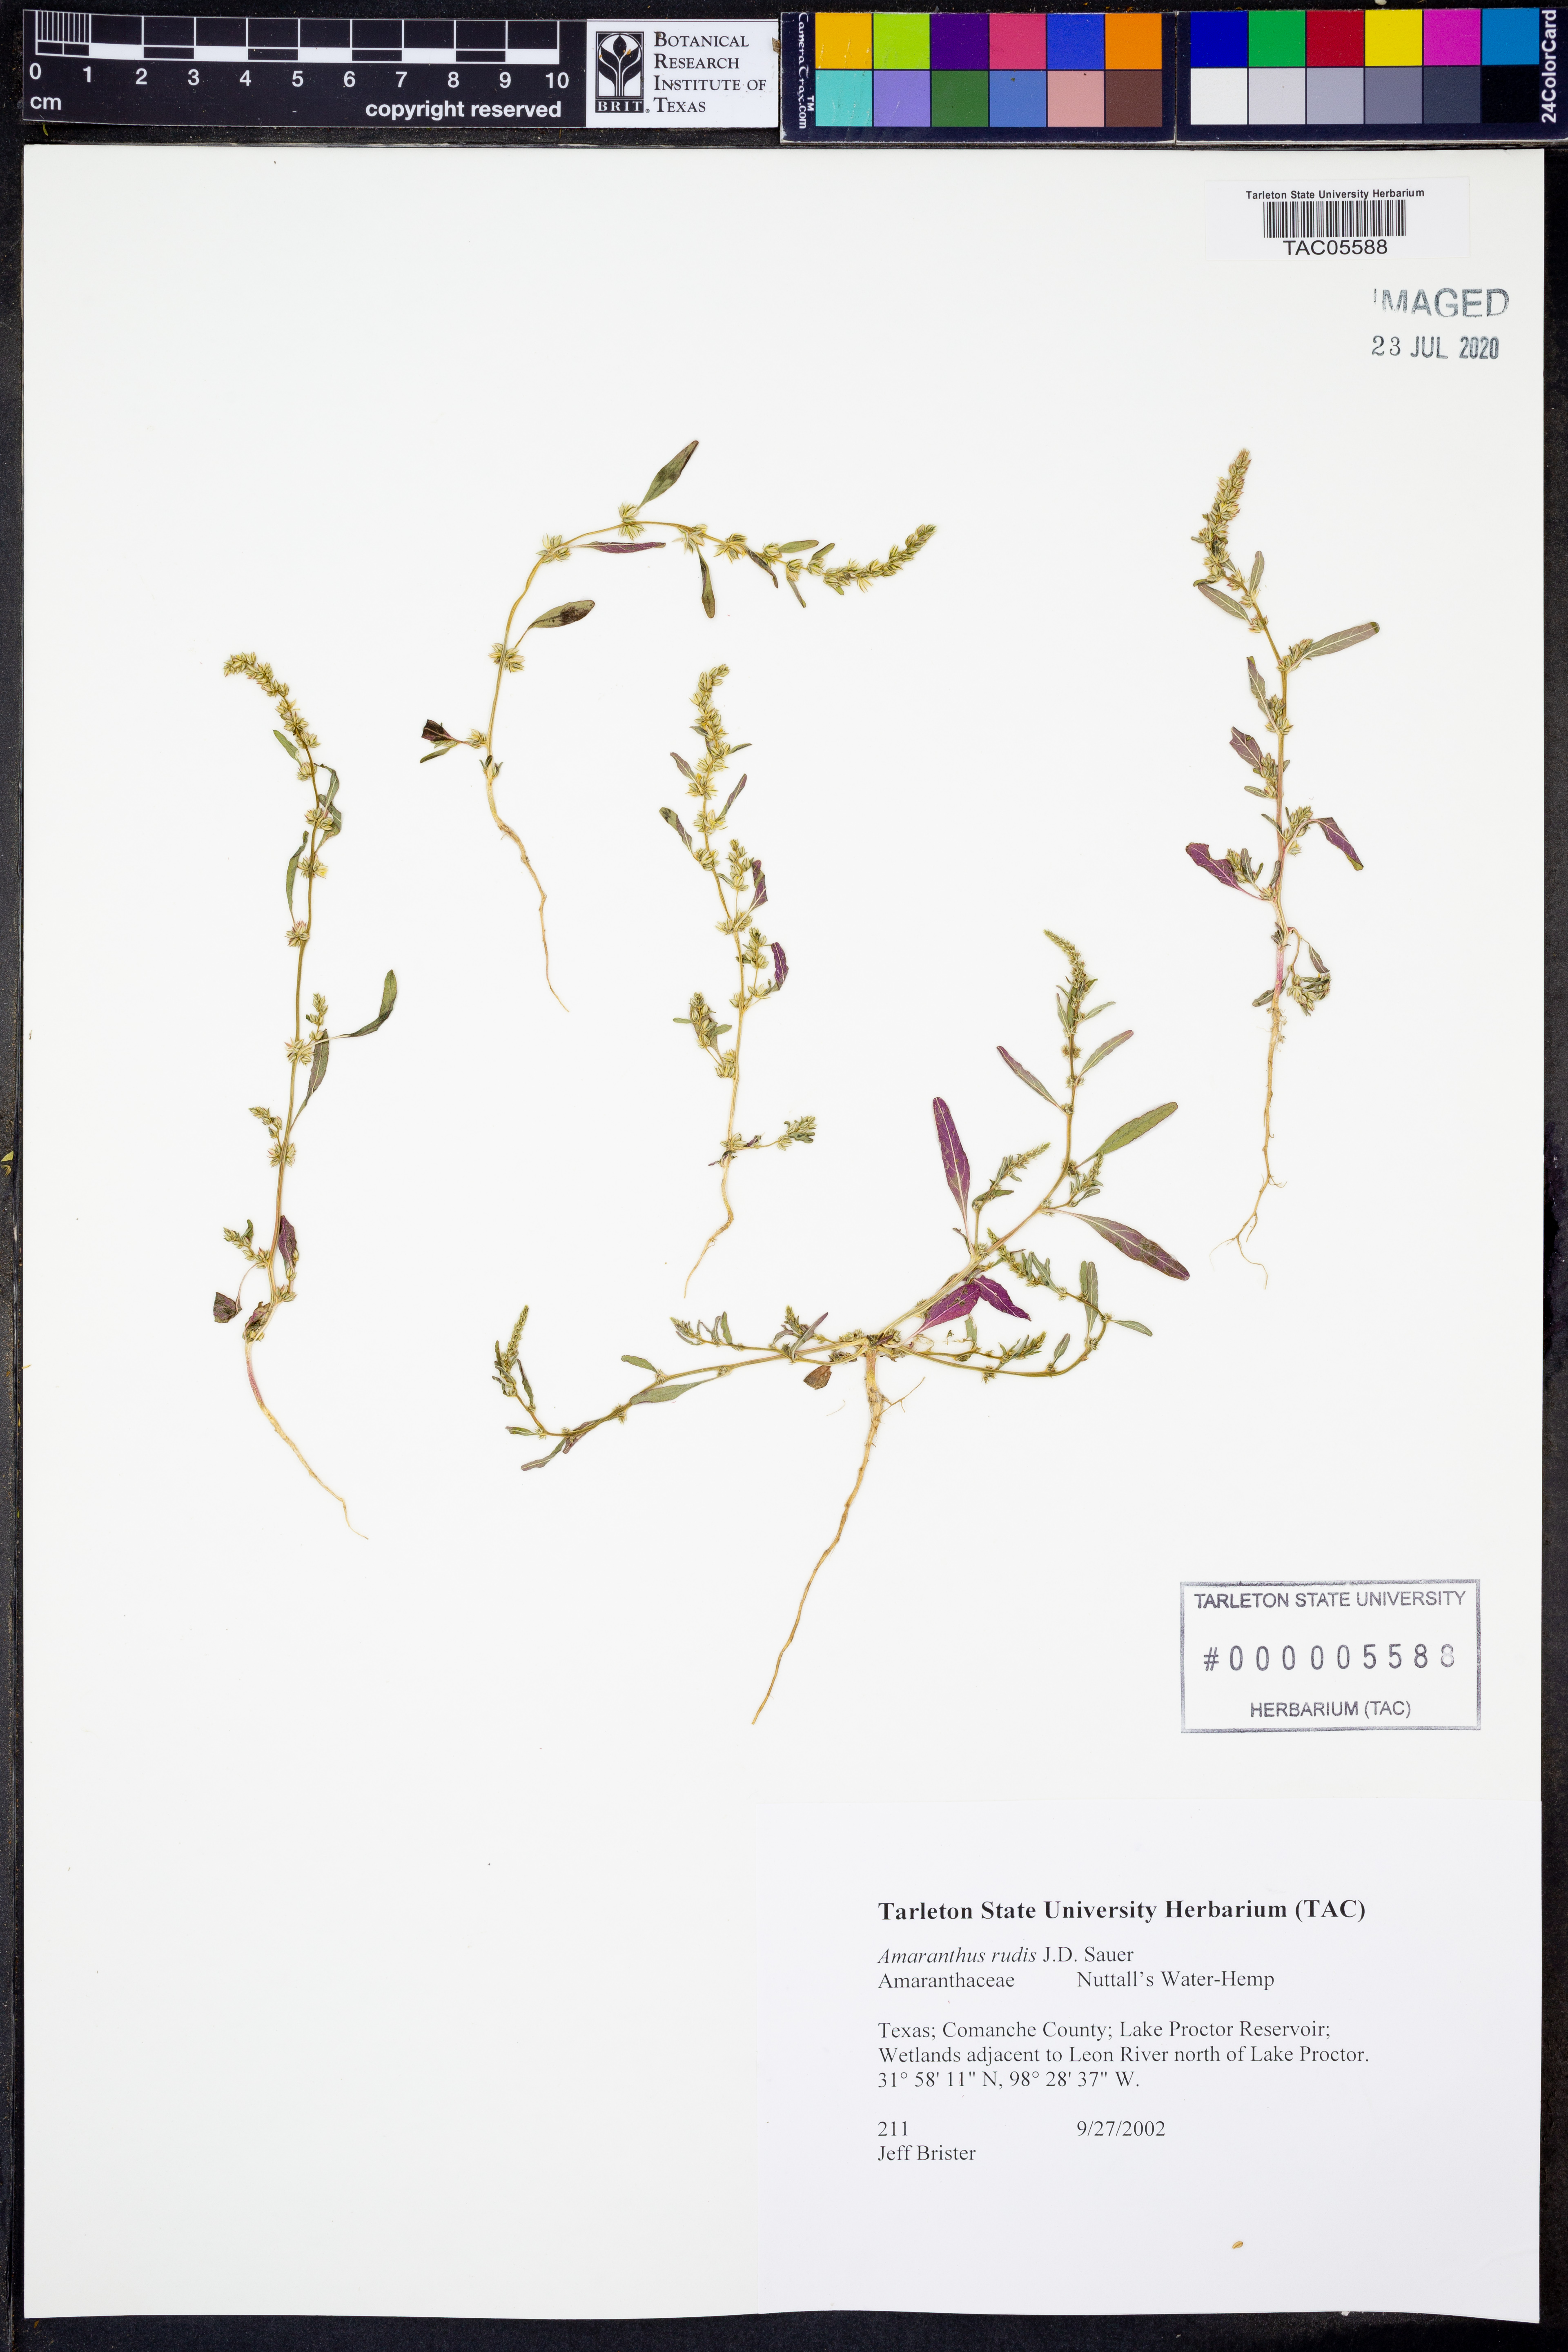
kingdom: Plantae
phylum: Tracheophyta
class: Magnoliopsida
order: Caryophyllales
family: Amaranthaceae
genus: Amaranthus
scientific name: Amaranthus tuberculatus
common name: Rough-fruit amaranth
